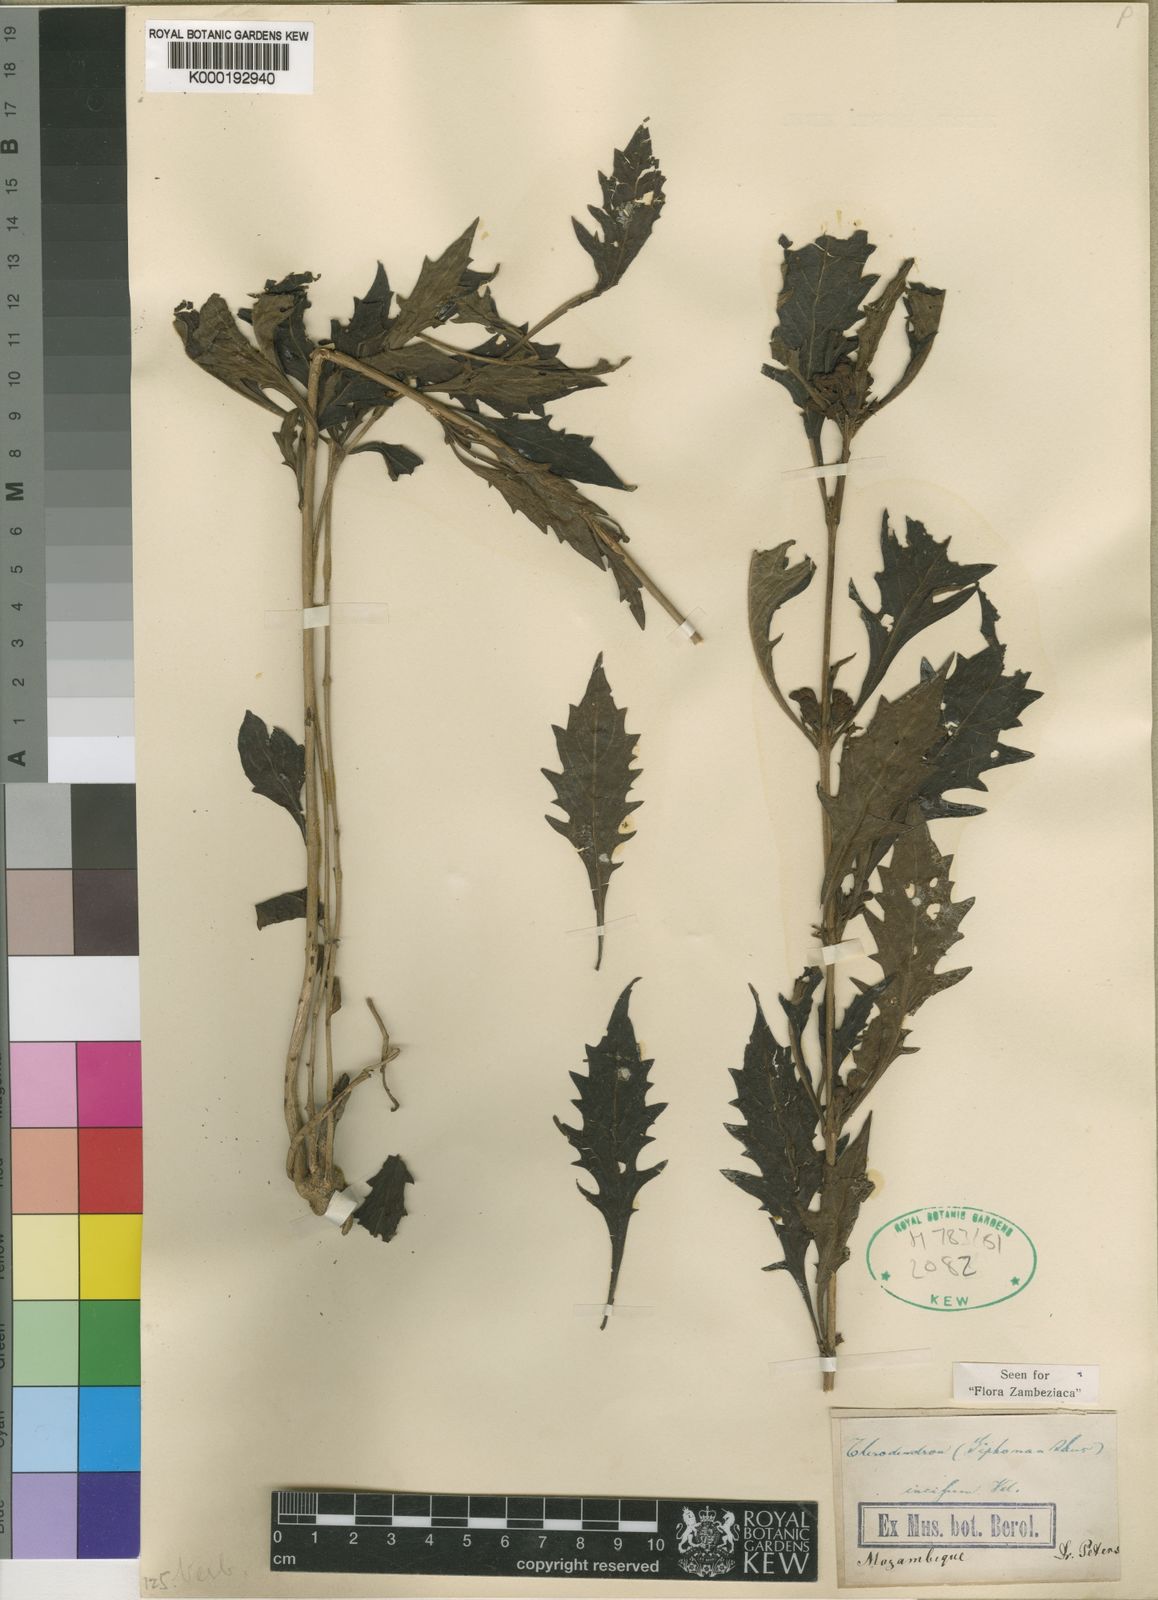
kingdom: Plantae
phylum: Tracheophyta
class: Magnoliopsida
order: Lamiales
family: Lamiaceae
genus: Rotheca
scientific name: Rotheca microphylla
